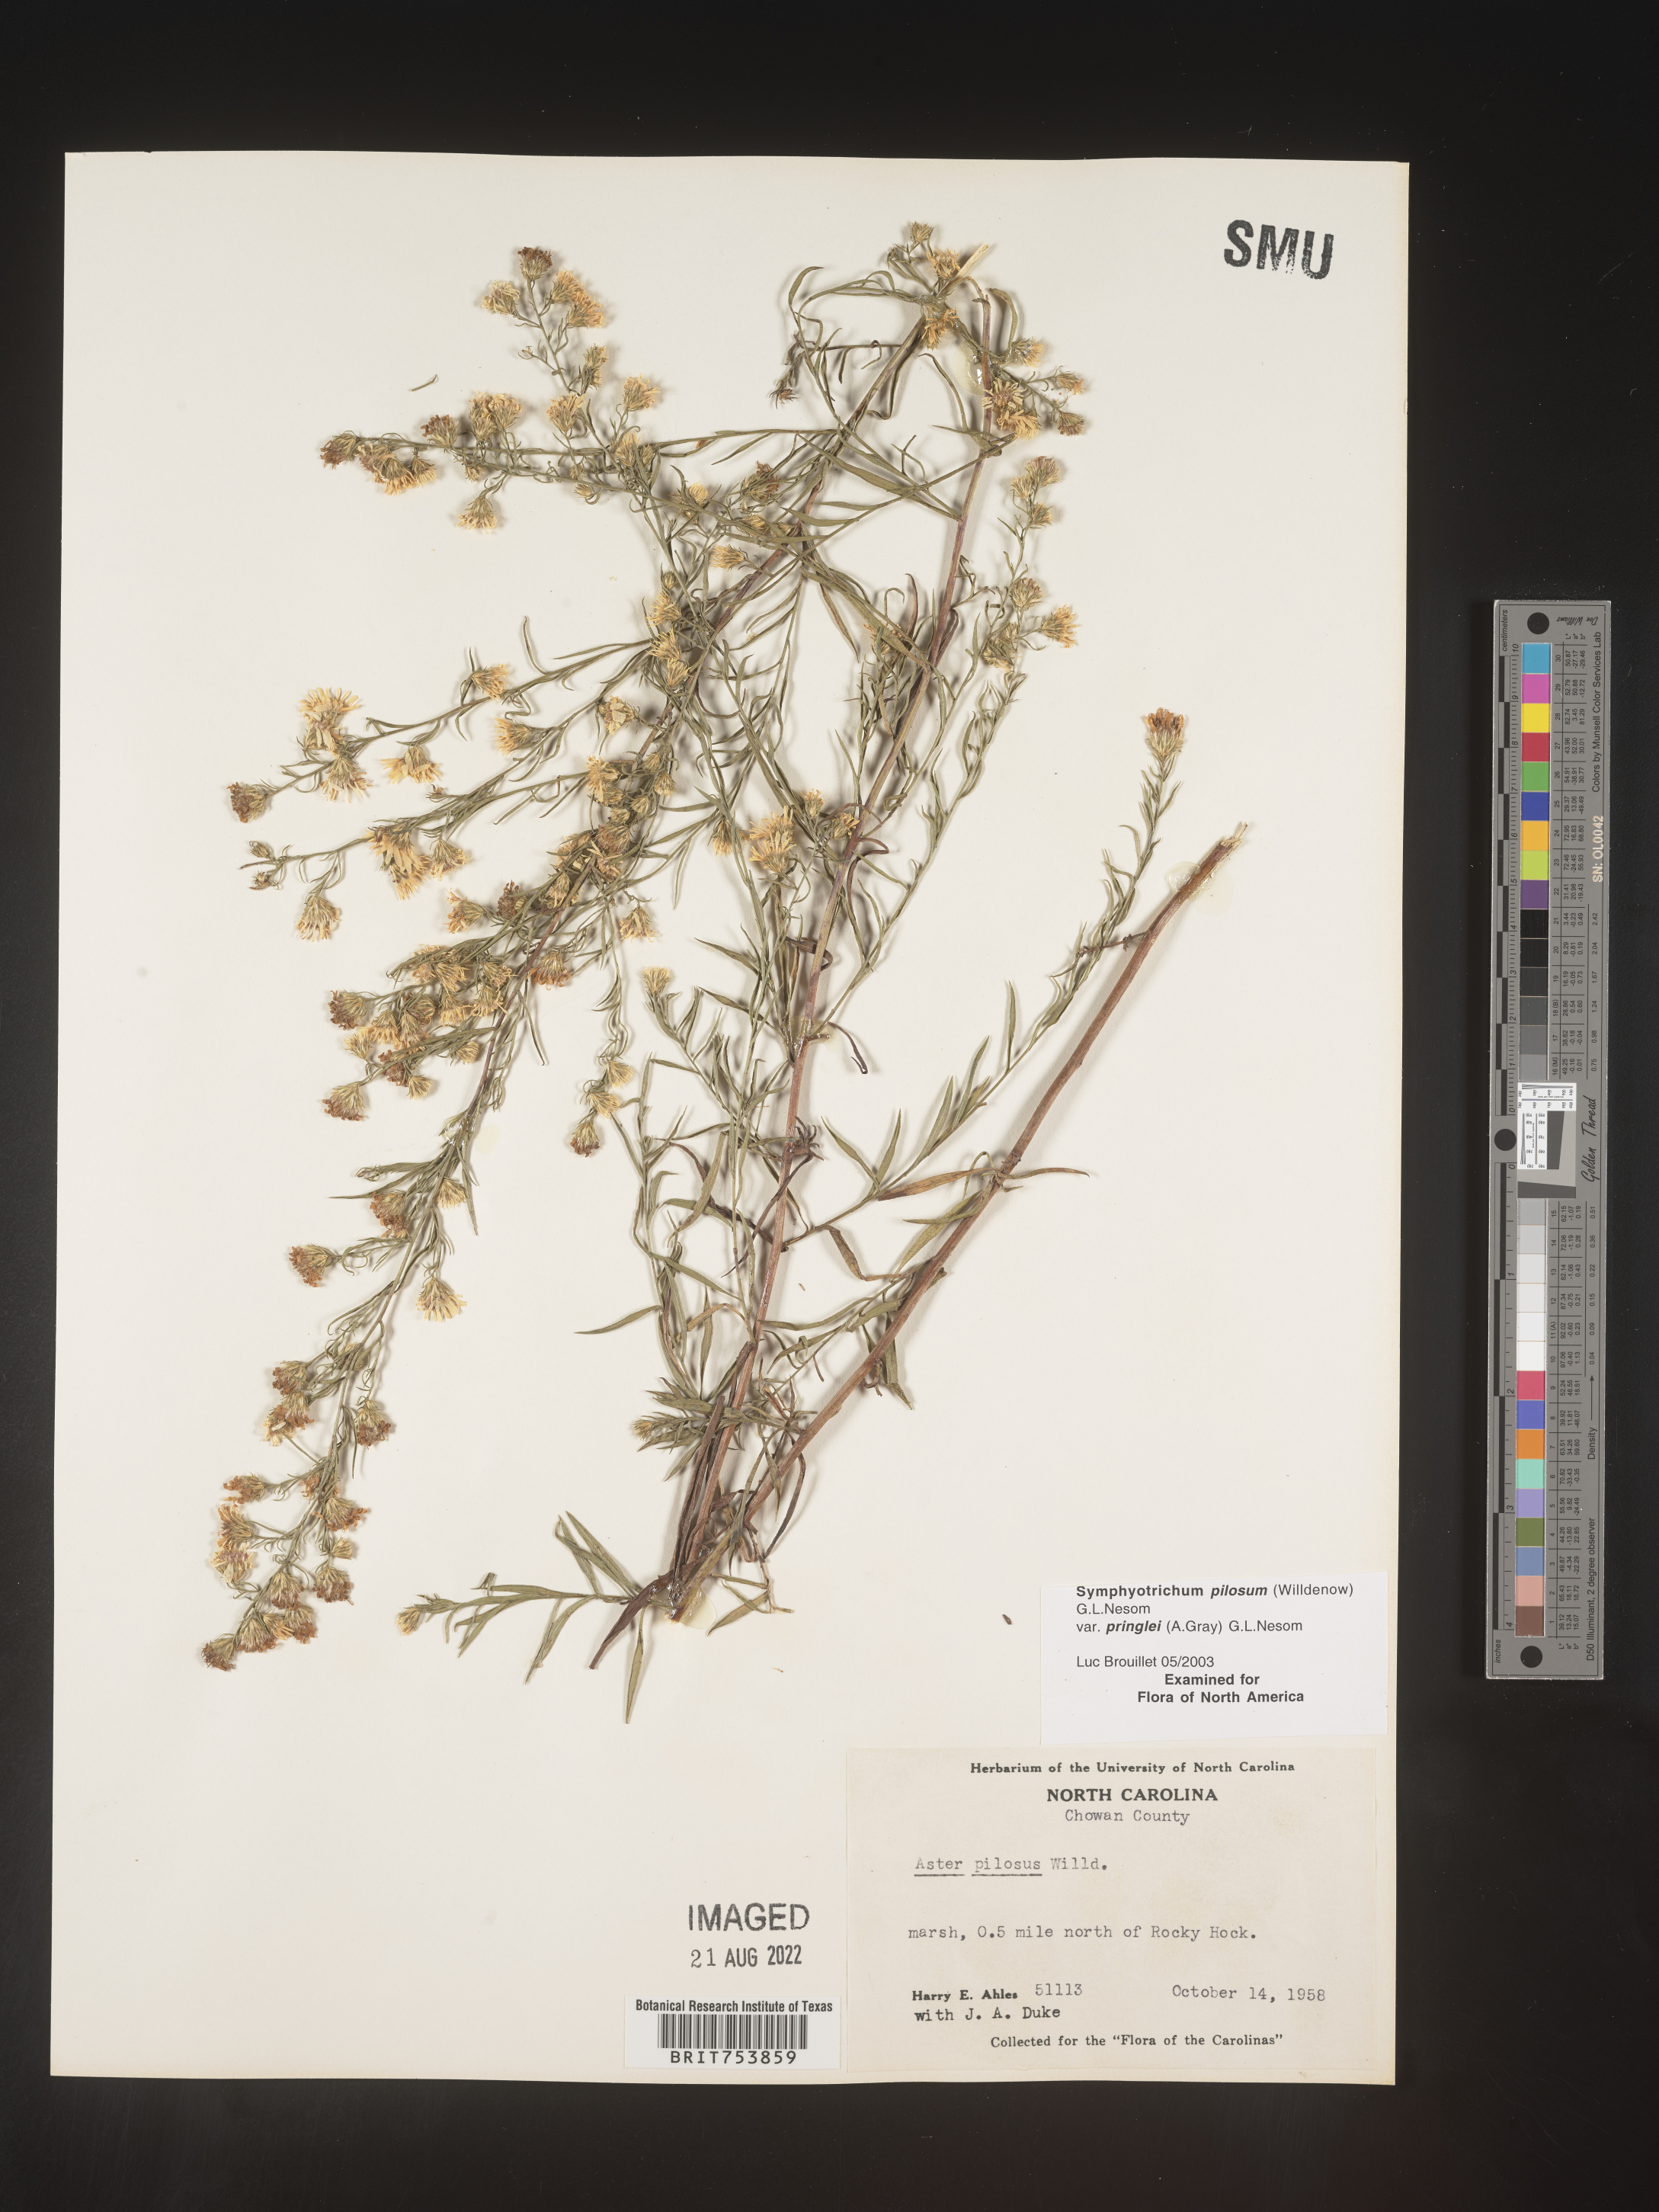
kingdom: Plantae
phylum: Tracheophyta
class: Magnoliopsida
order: Asterales
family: Asteraceae
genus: Symphyotrichum
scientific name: Symphyotrichum pilosum
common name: Awl aster
